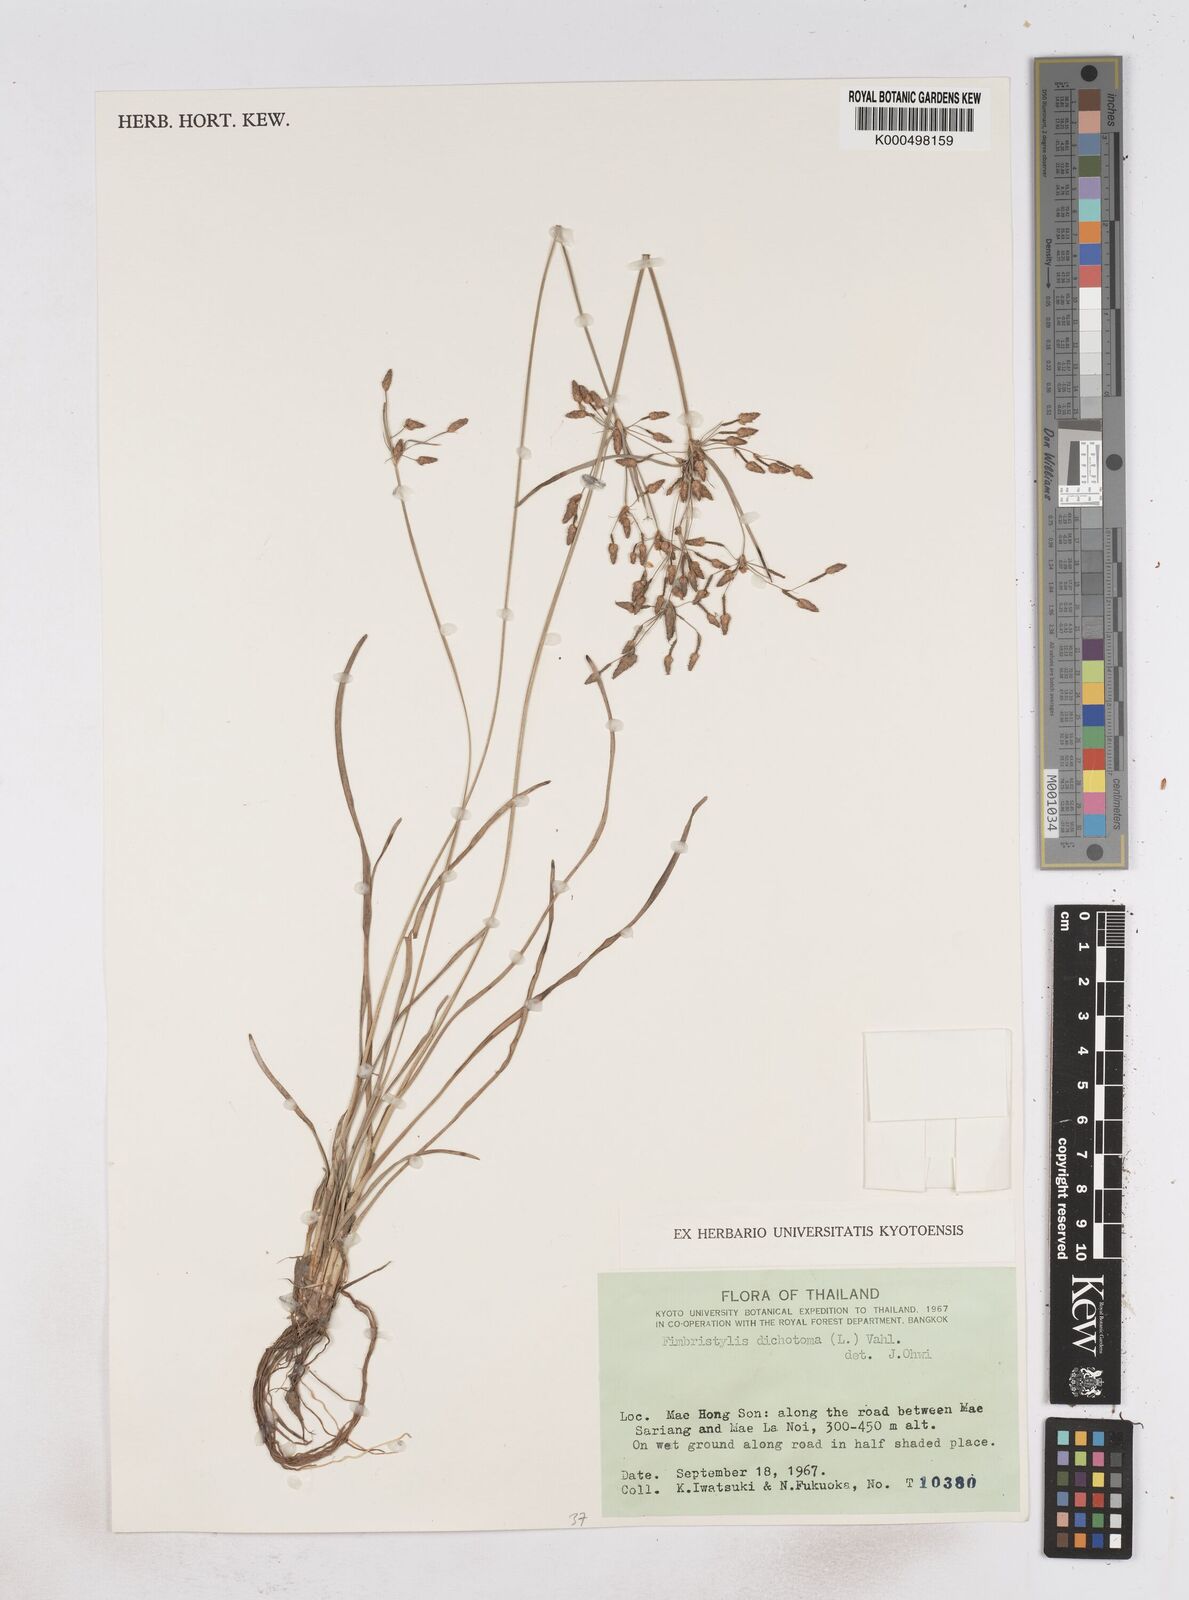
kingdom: Plantae
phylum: Tracheophyta
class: Liliopsida
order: Poales
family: Cyperaceae
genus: Fimbristylis
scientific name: Fimbristylis dichotoma
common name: Forked fimbry
